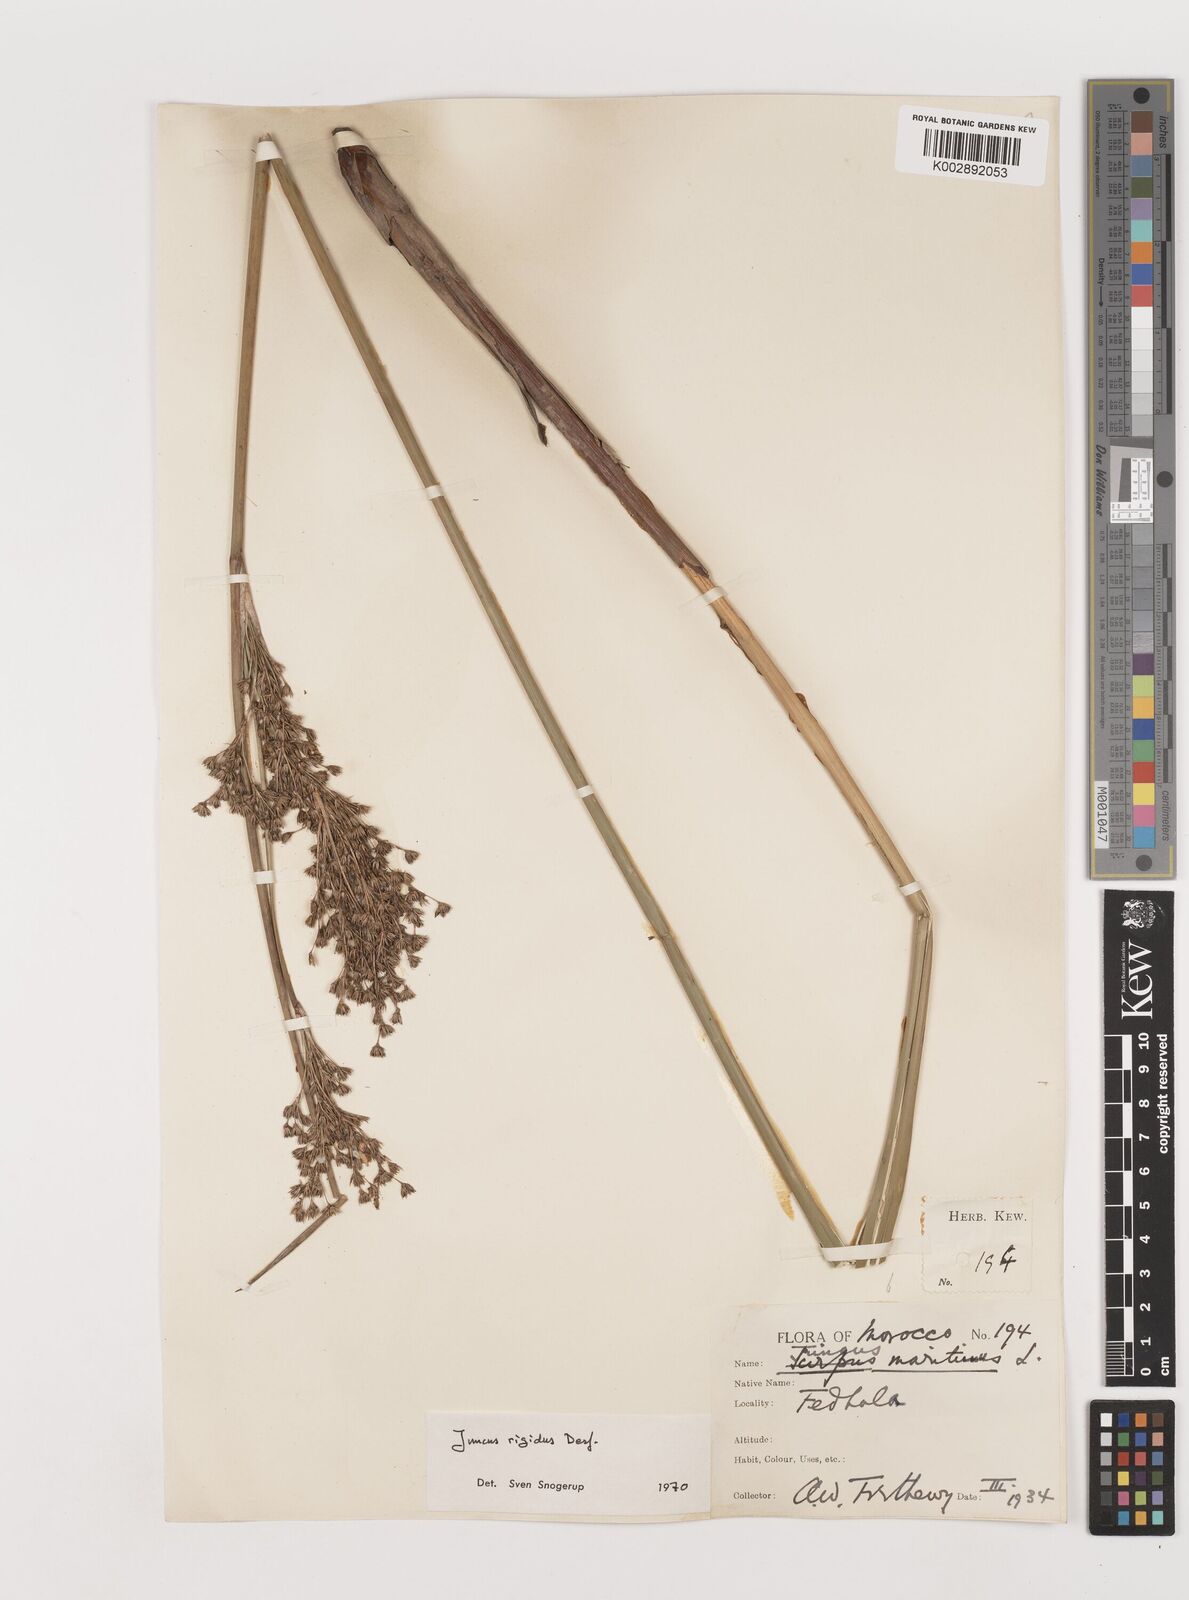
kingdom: Plantae
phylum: Tracheophyta
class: Liliopsida
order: Poales
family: Juncaceae
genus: Juncus
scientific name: Juncus rigidus
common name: Hard sea rush
